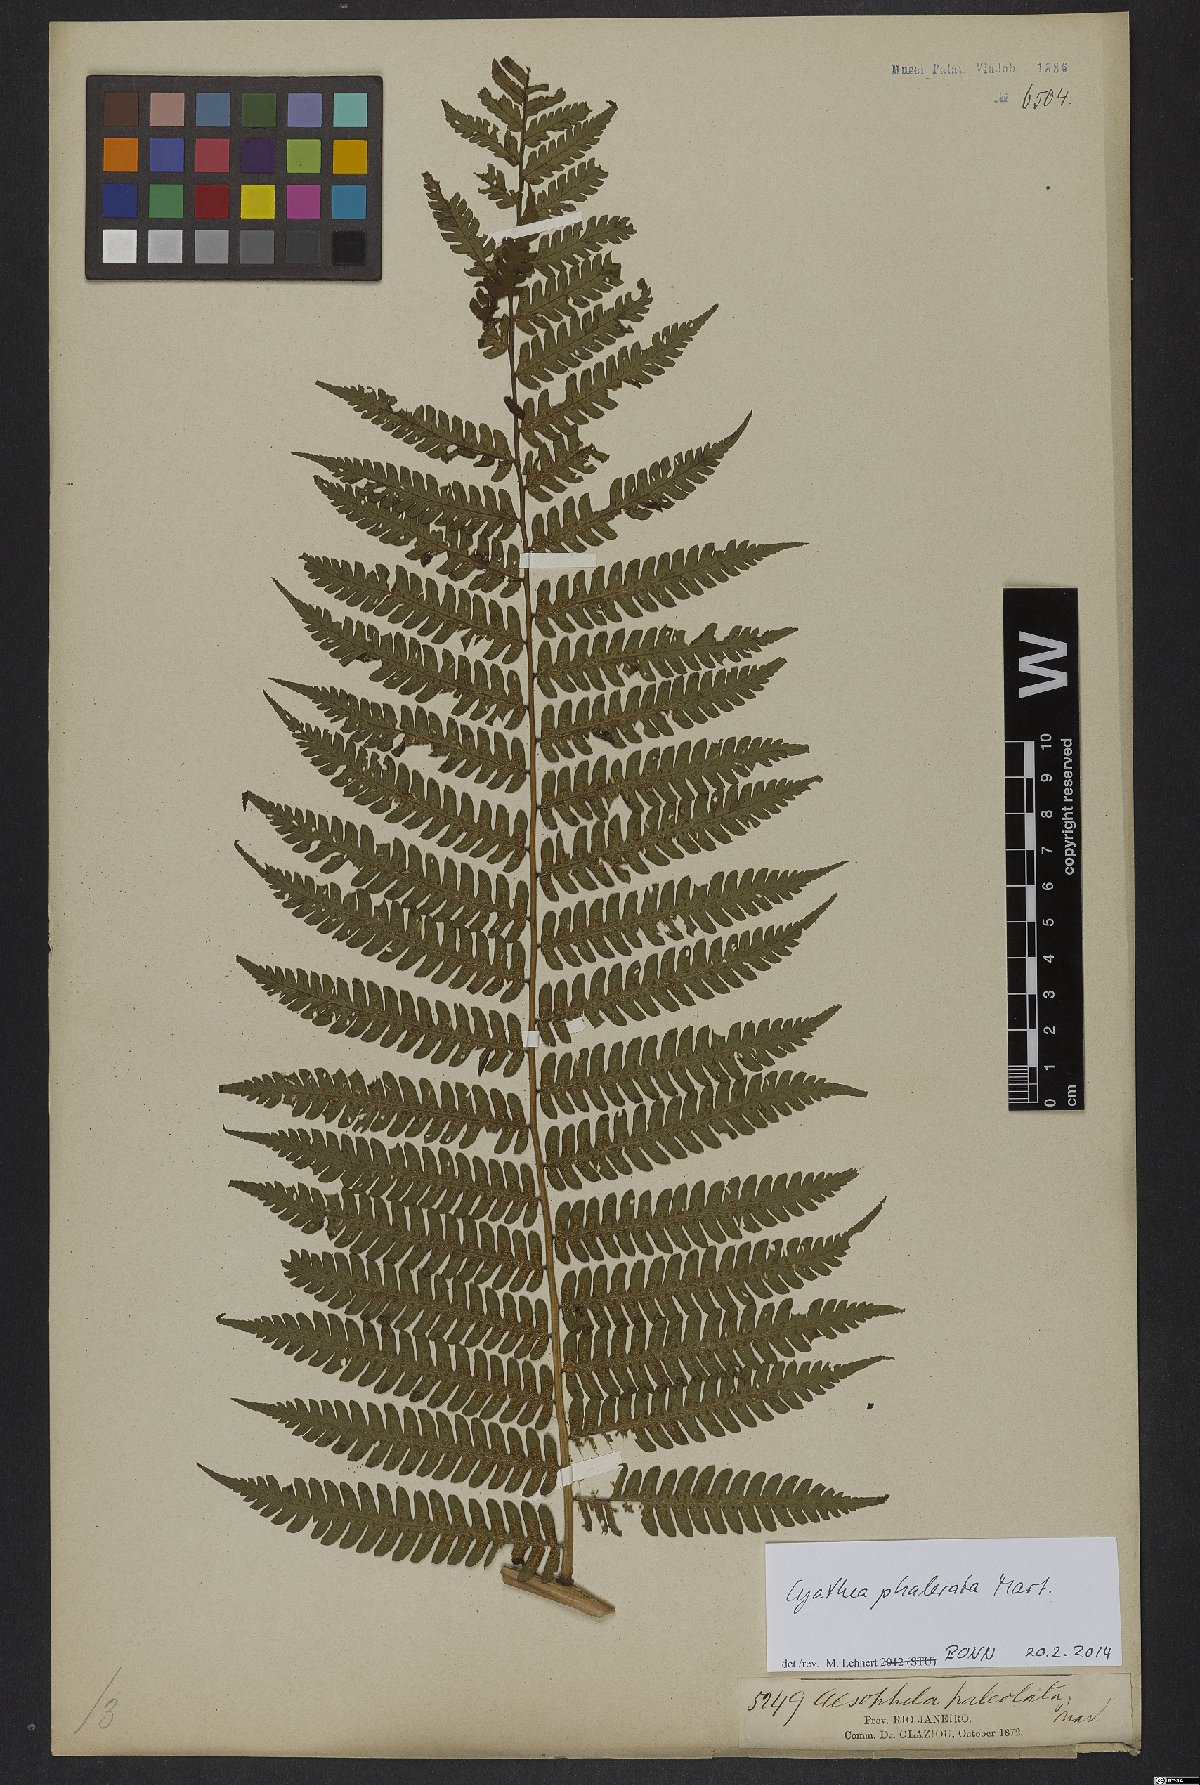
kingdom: Plantae
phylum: Tracheophyta
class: Polypodiopsida
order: Cyatheales
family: Cyatheaceae
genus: Cyathea
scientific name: Cyathea phalerata
